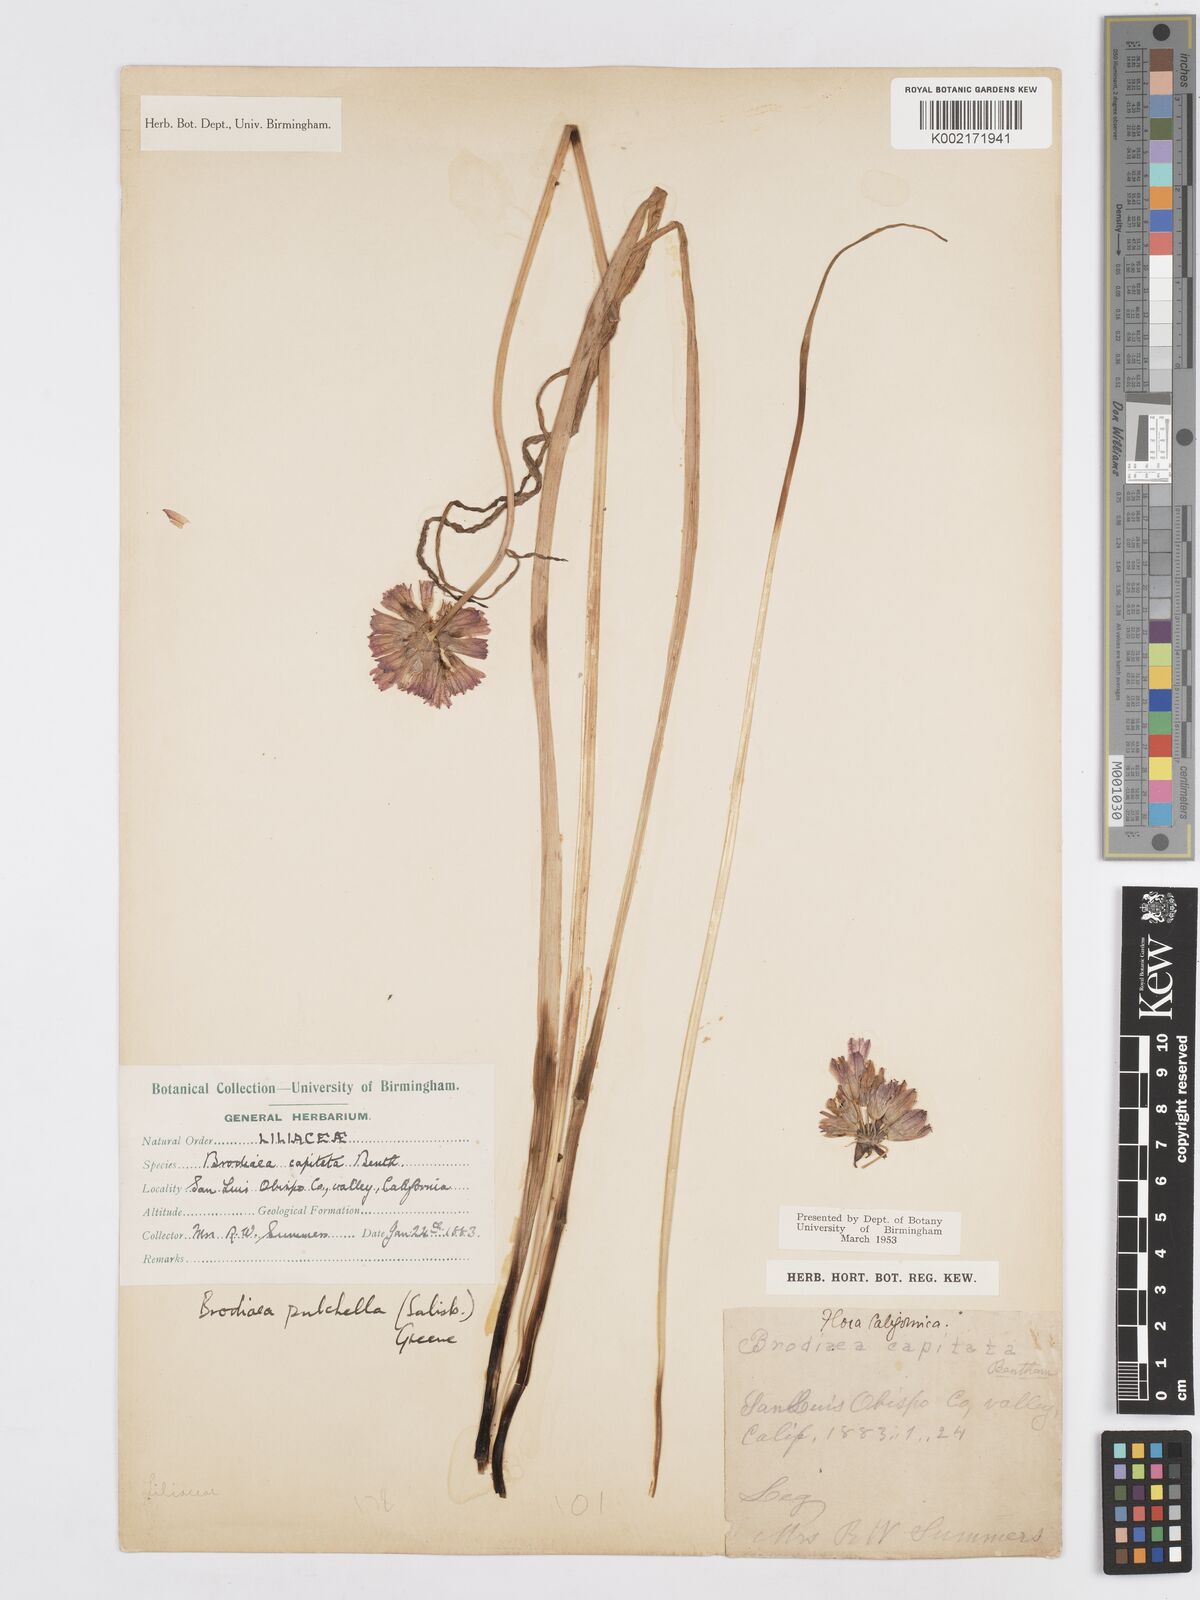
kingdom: Plantae
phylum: Tracheophyta
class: Liliopsida
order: Asparagales
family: Asparagaceae
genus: Dichelostemma
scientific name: Dichelostemma congestum
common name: Fork-tooth ookow
